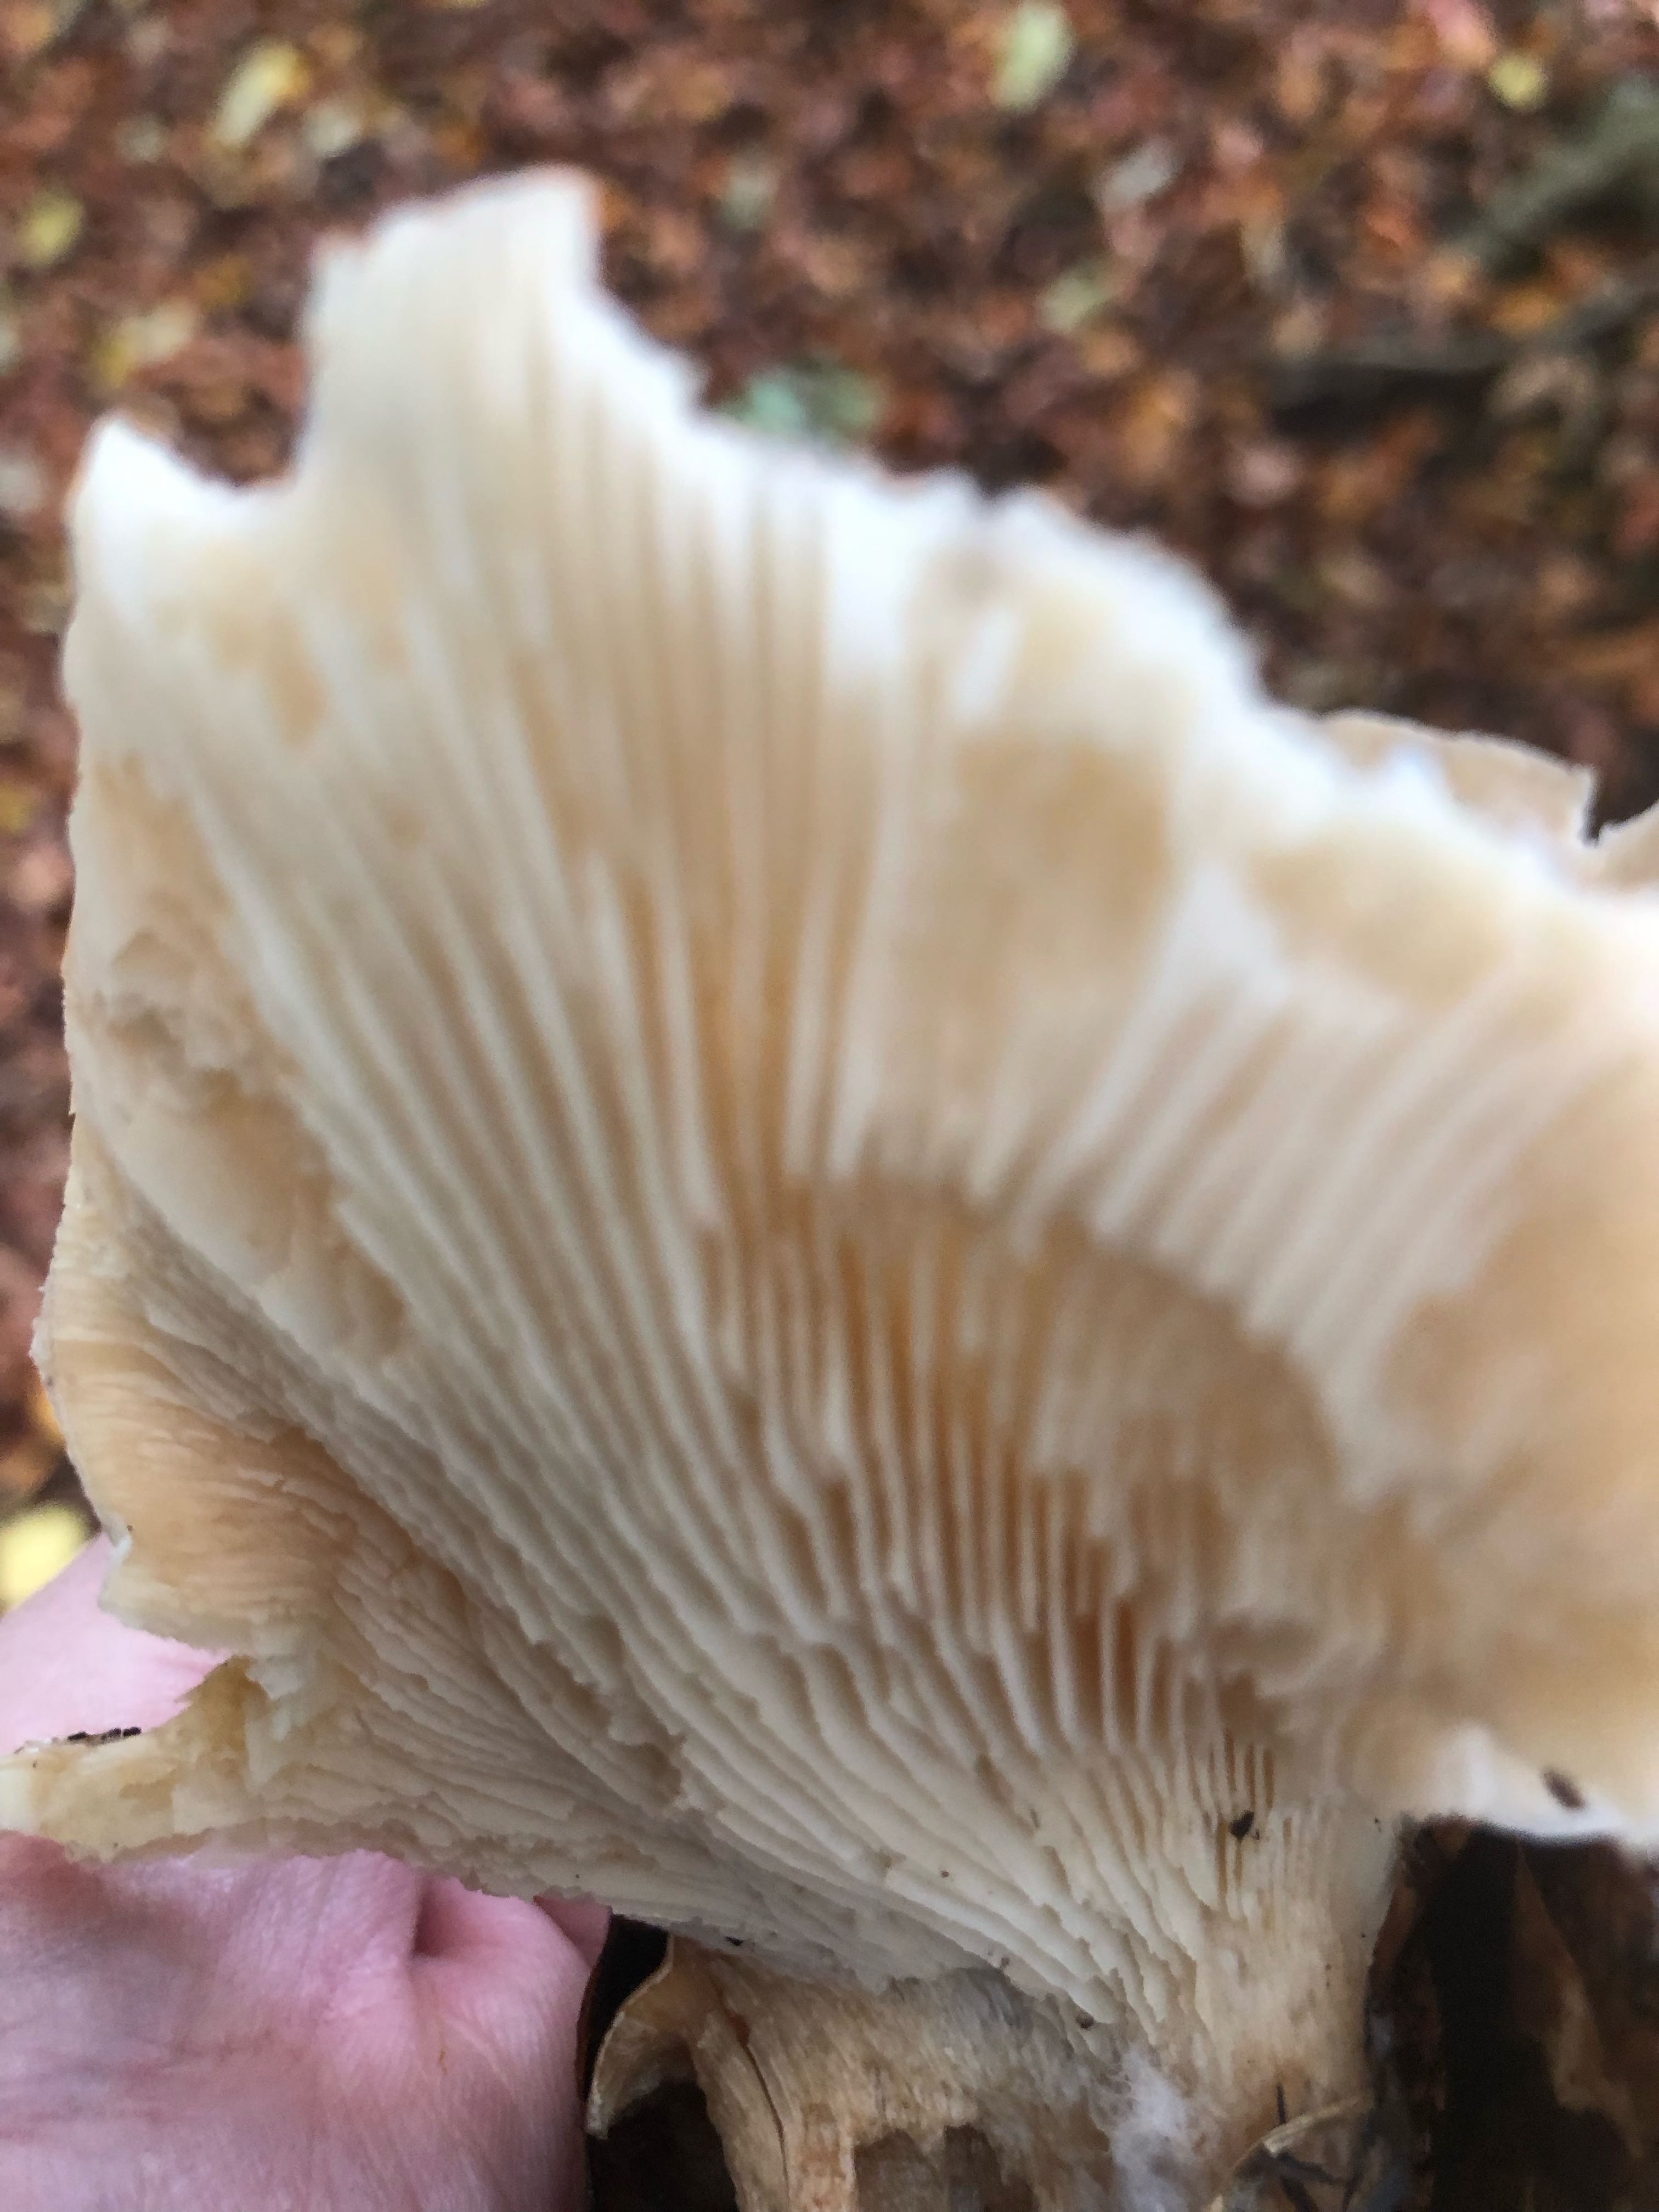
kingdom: Fungi
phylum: Basidiomycota
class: Agaricomycetes
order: Agaricales
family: Tricholomataceae
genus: Clitocybe
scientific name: Clitocybe nebularis
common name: tåge-tragthat
